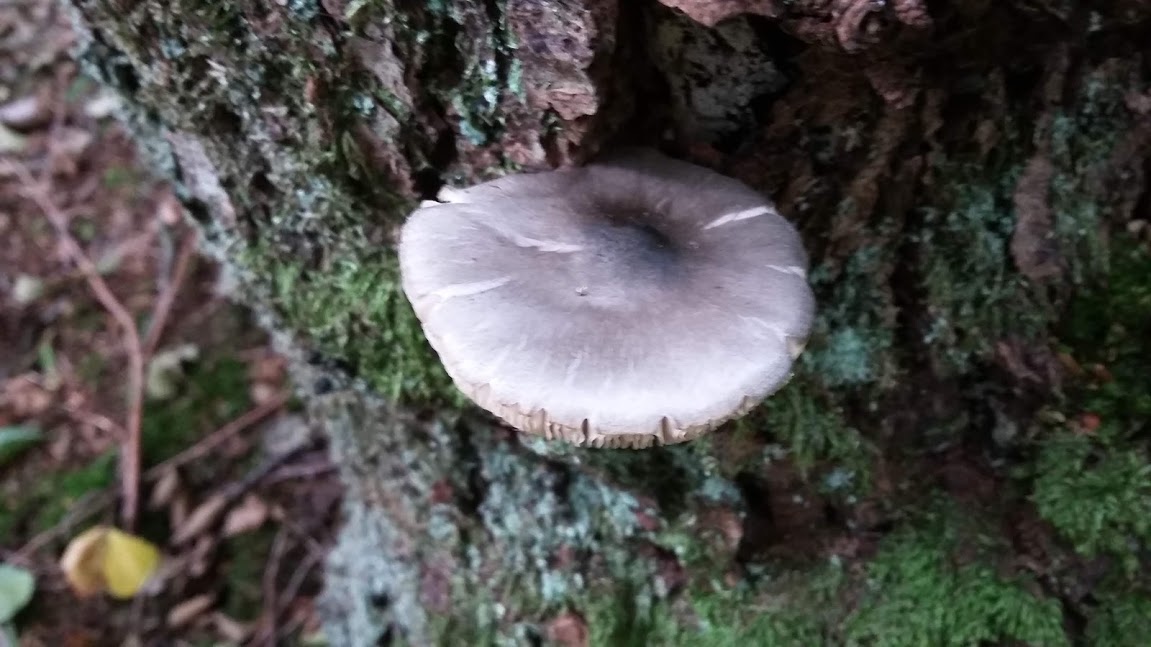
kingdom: Fungi
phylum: Basidiomycota
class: Agaricomycetes
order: Agaricales
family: Pluteaceae
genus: Pluteus
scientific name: Pluteus salicinus
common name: stiv skærmhat
